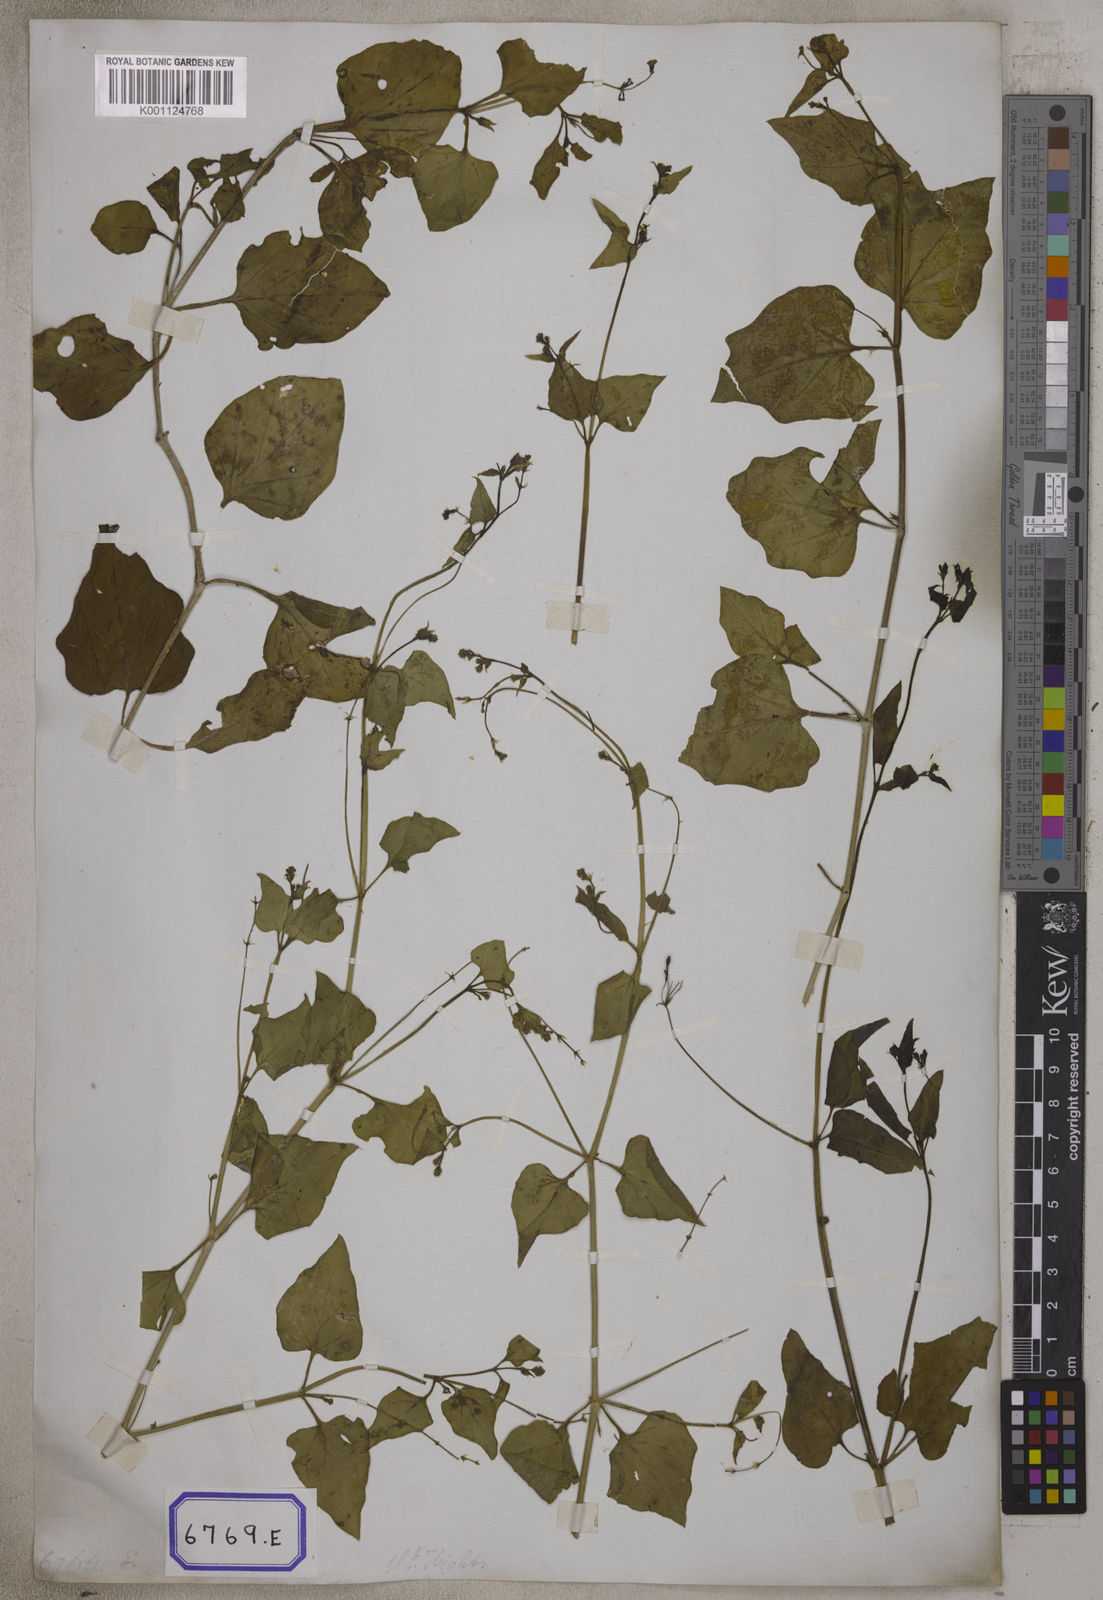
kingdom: Plantae
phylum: Tracheophyta
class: Magnoliopsida
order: Caryophyllales
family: Nyctaginaceae
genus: Commicarpus
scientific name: Commicarpus chinensis
